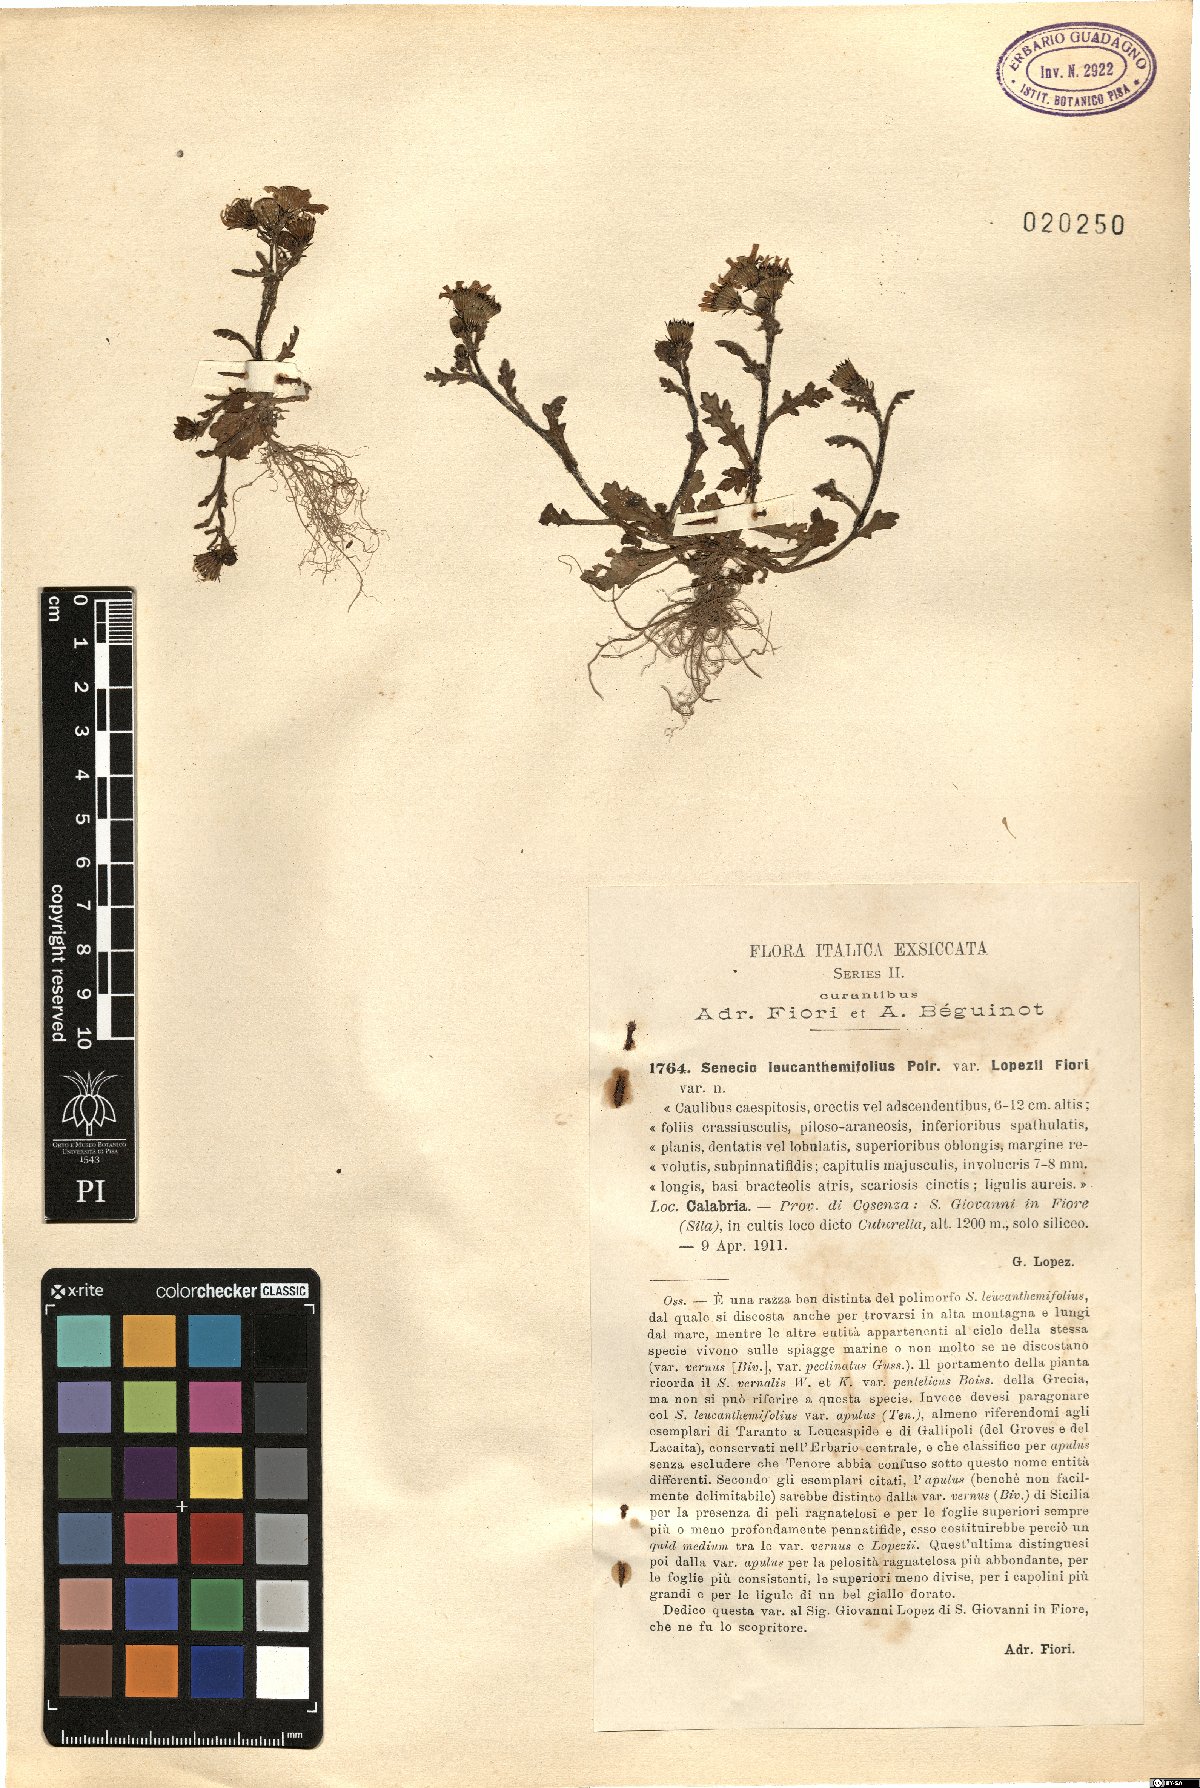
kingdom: Plantae
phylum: Tracheophyta
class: Magnoliopsida
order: Asterales
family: Asteraceae
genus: Senecio
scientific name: Senecio leucanthemifolius
